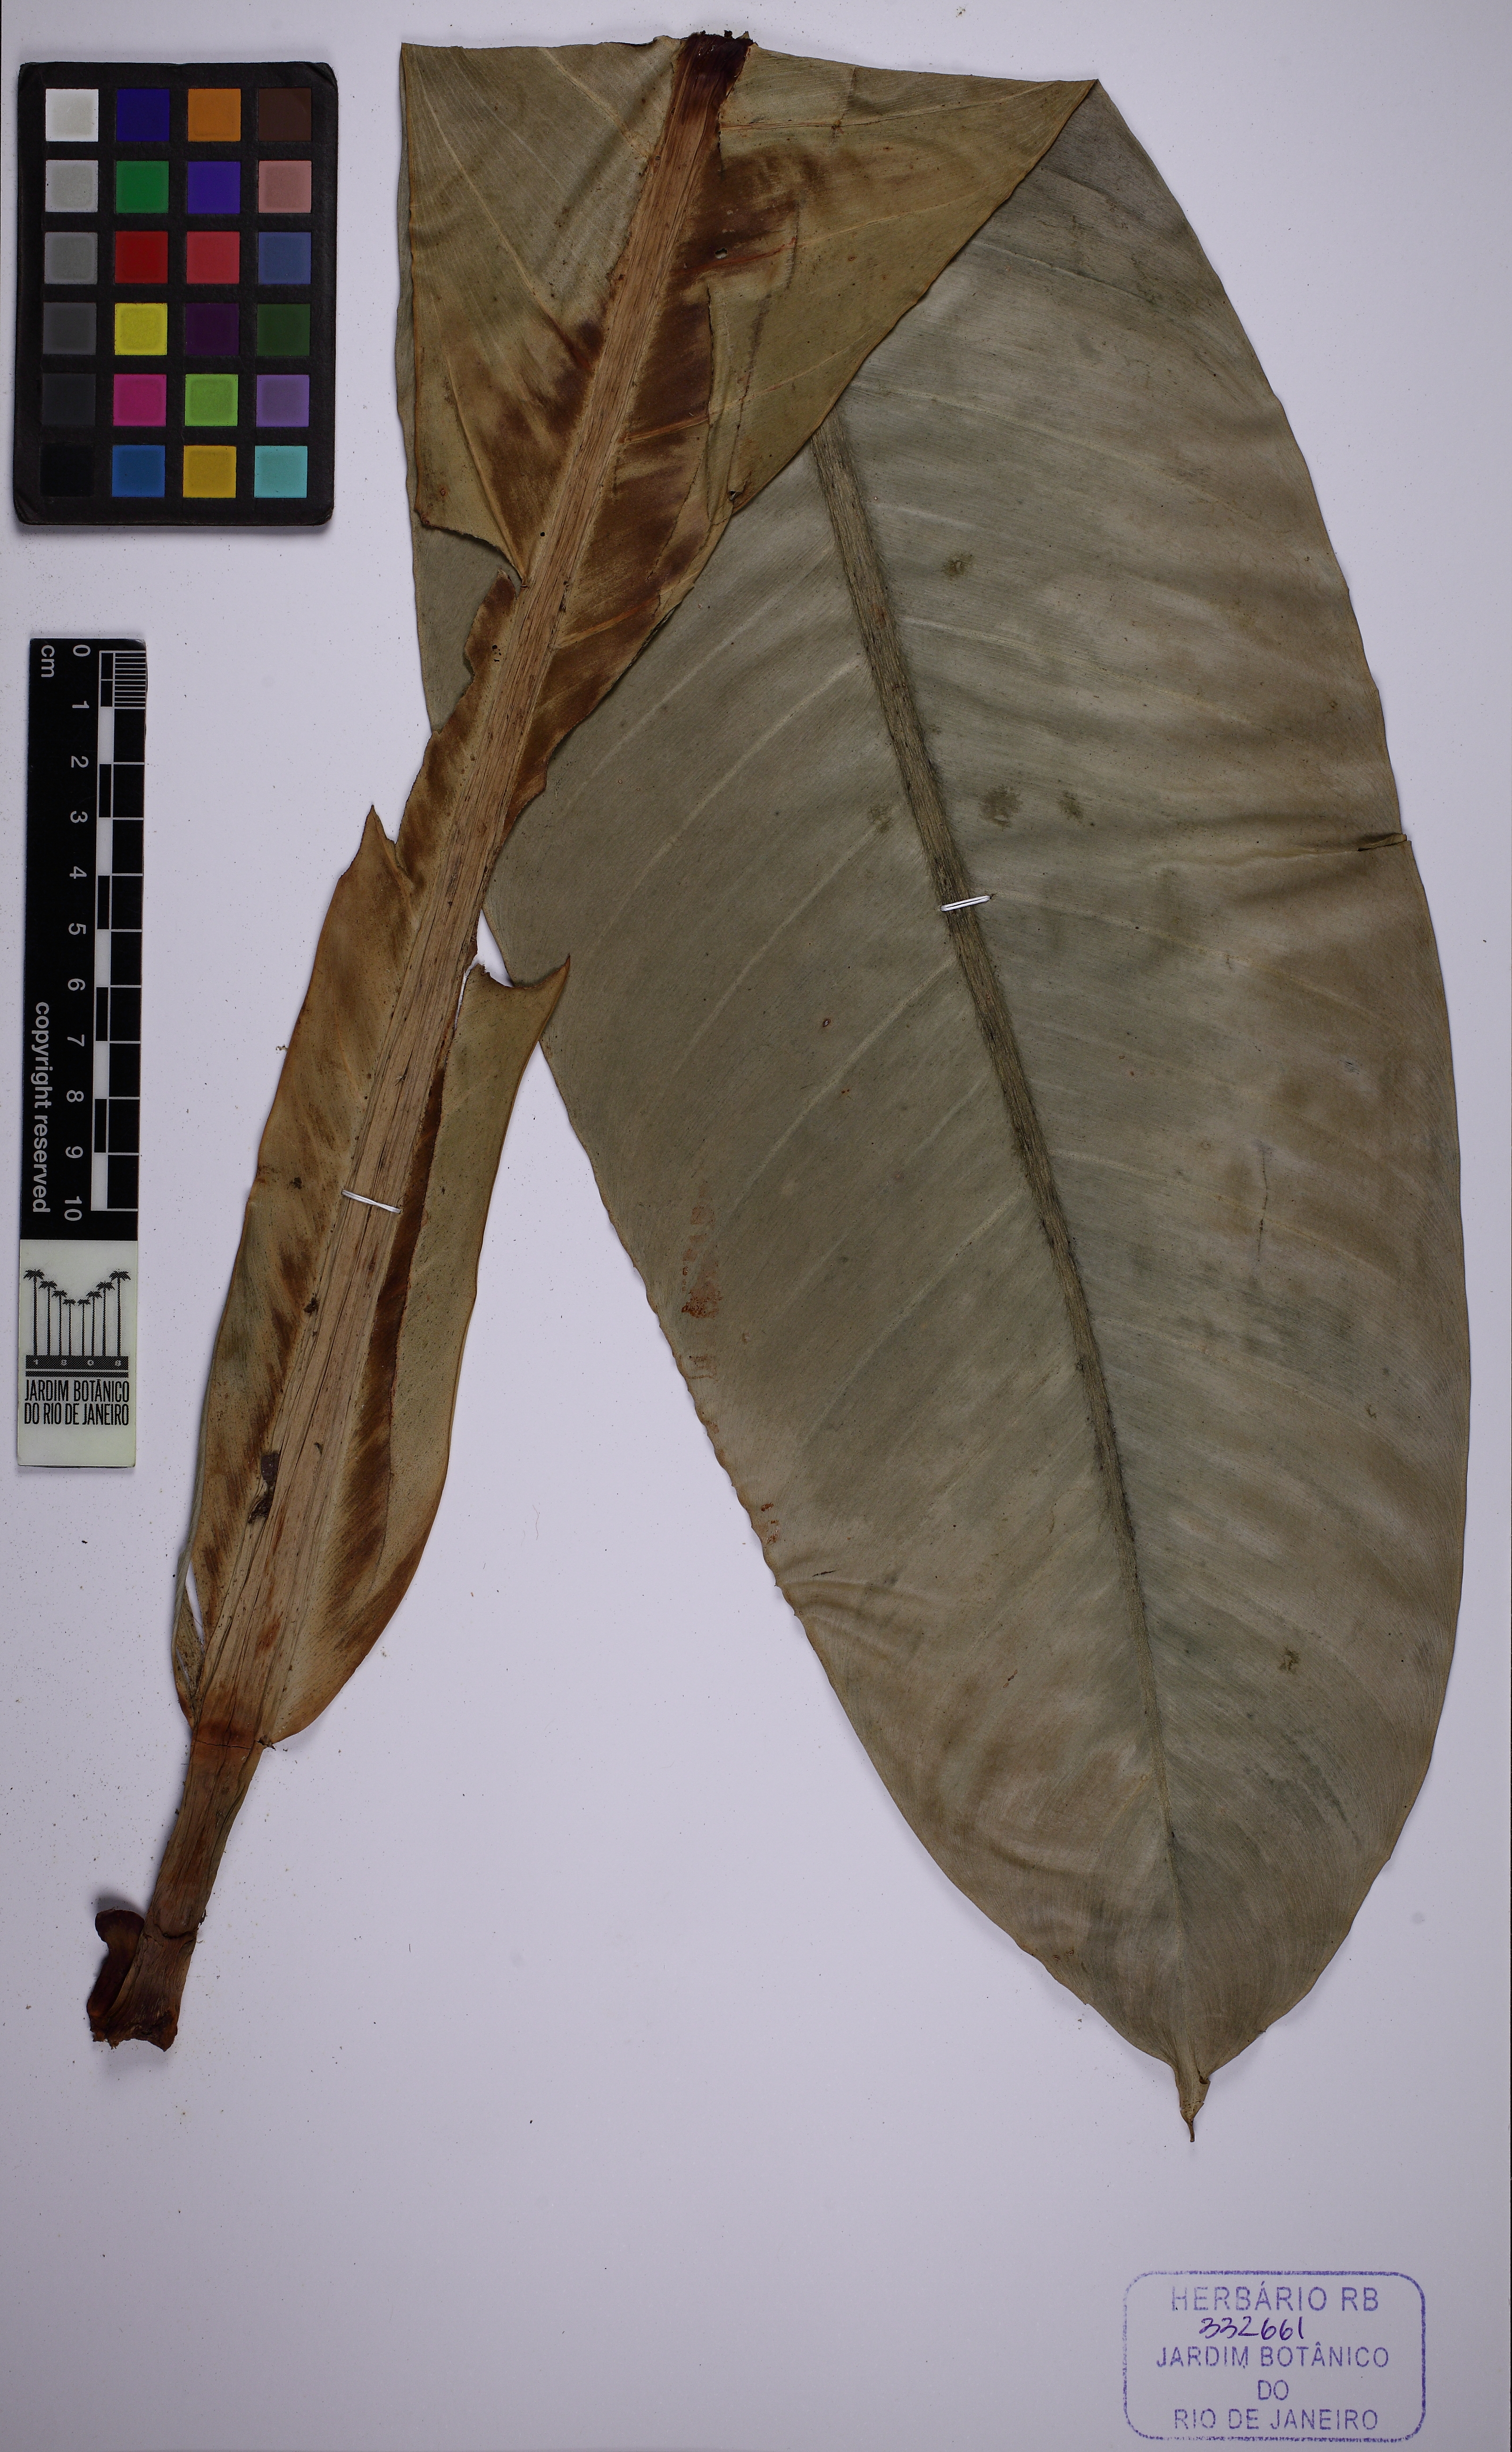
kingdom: Plantae
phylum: Tracheophyta
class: Liliopsida
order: Alismatales
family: Araceae
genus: Philodendron
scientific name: Philodendron insigne
